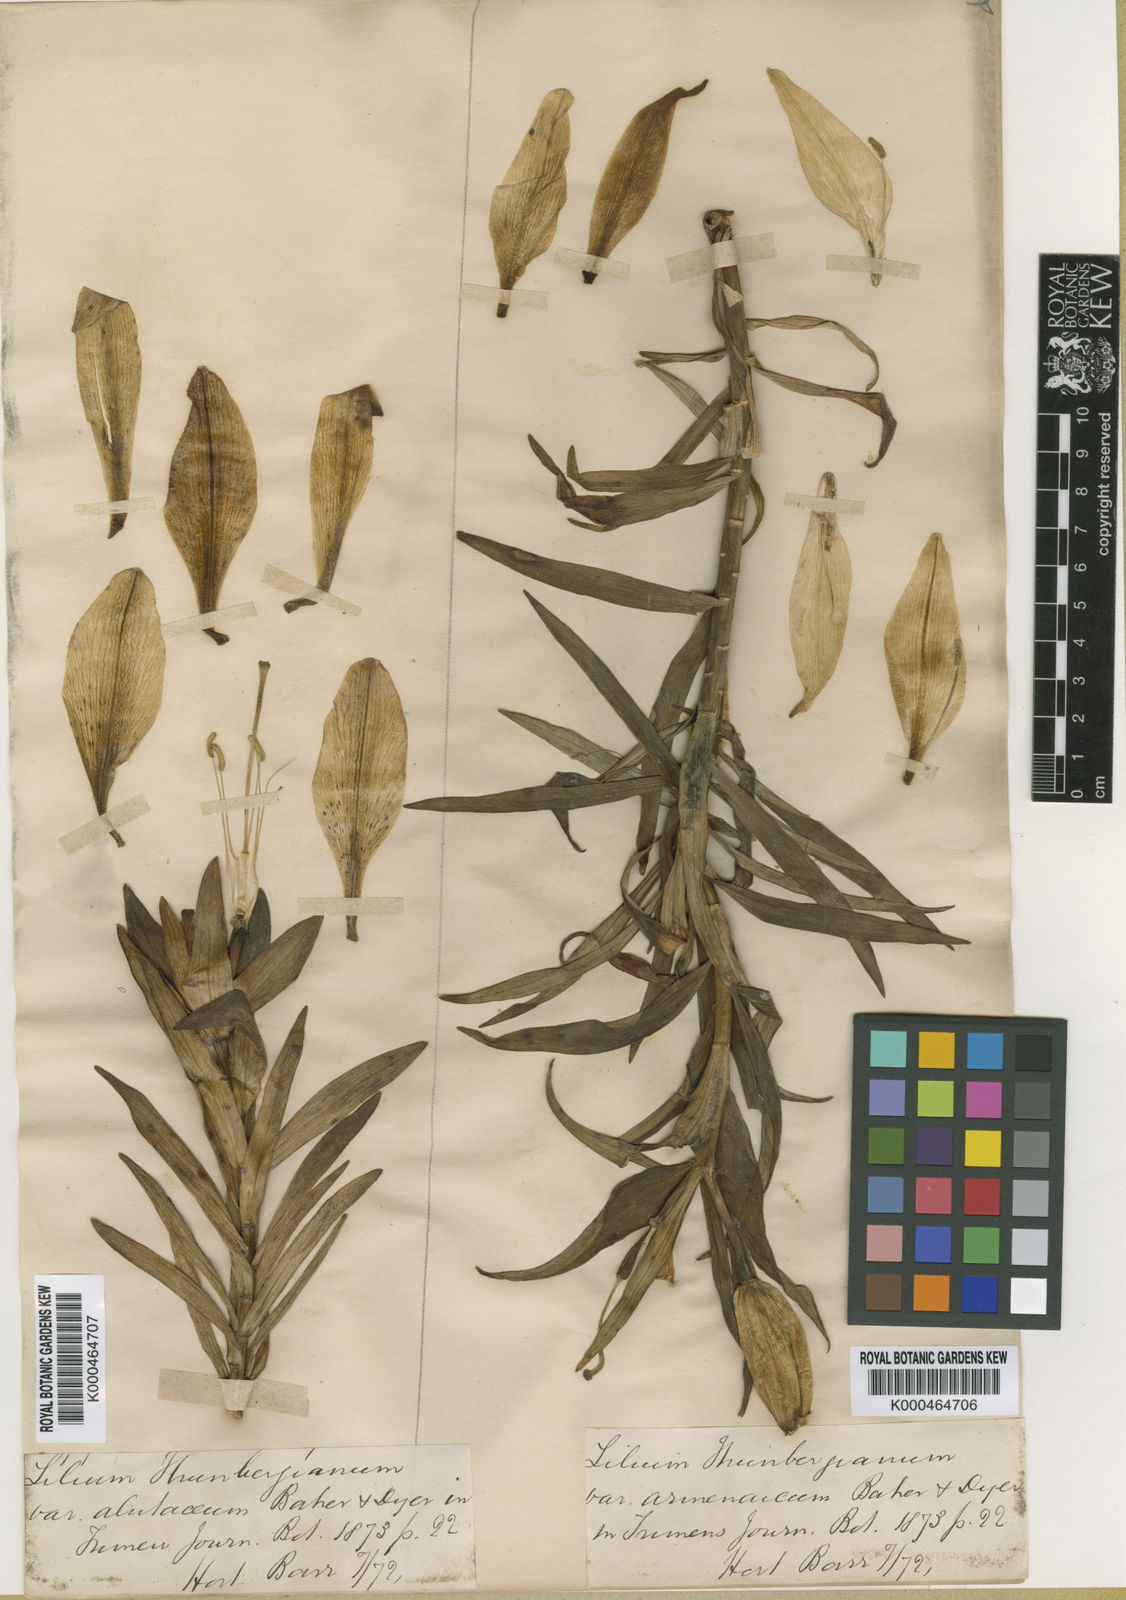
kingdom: Plantae
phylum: Tracheophyta
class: Liliopsida
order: Liliales
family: Liliaceae
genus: Lilium
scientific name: Lilium
